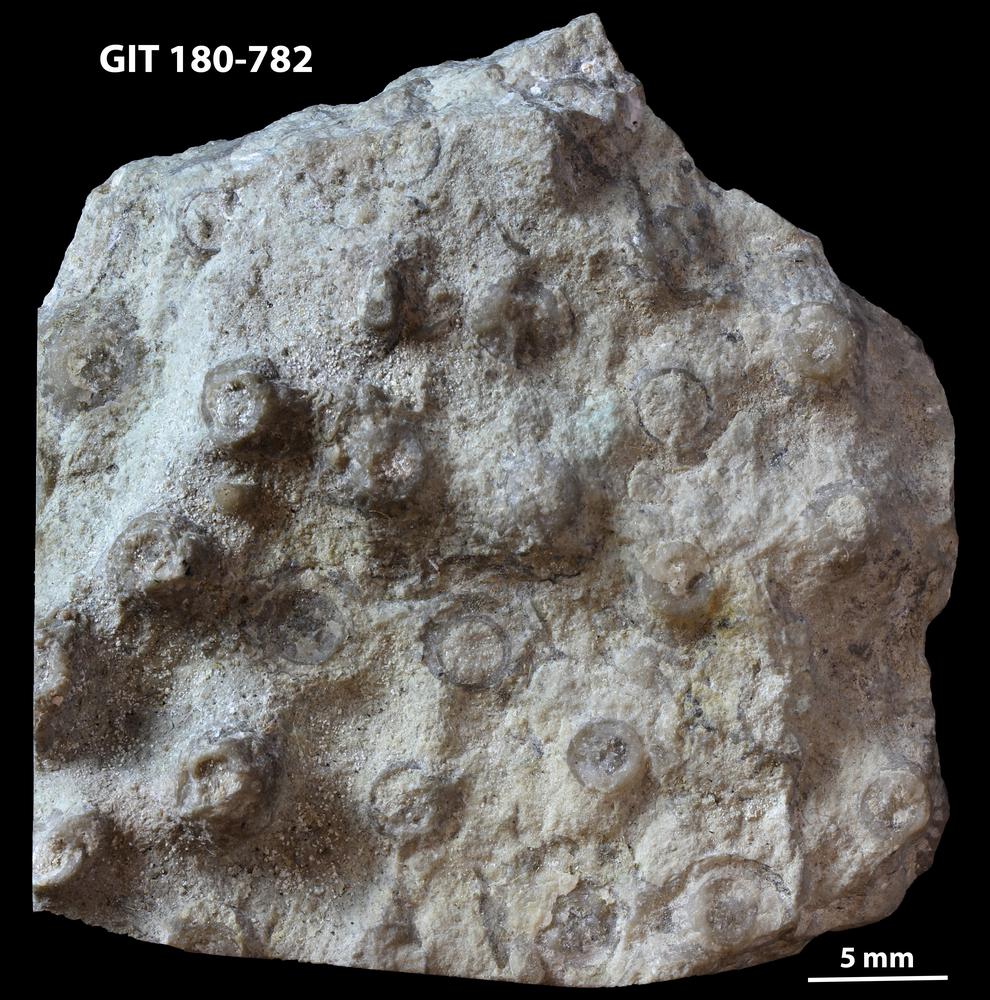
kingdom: Animalia
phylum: Cnidaria
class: Anthozoa
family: Syringophyllidae
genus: Sarcinula
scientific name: Sarcinula organum
